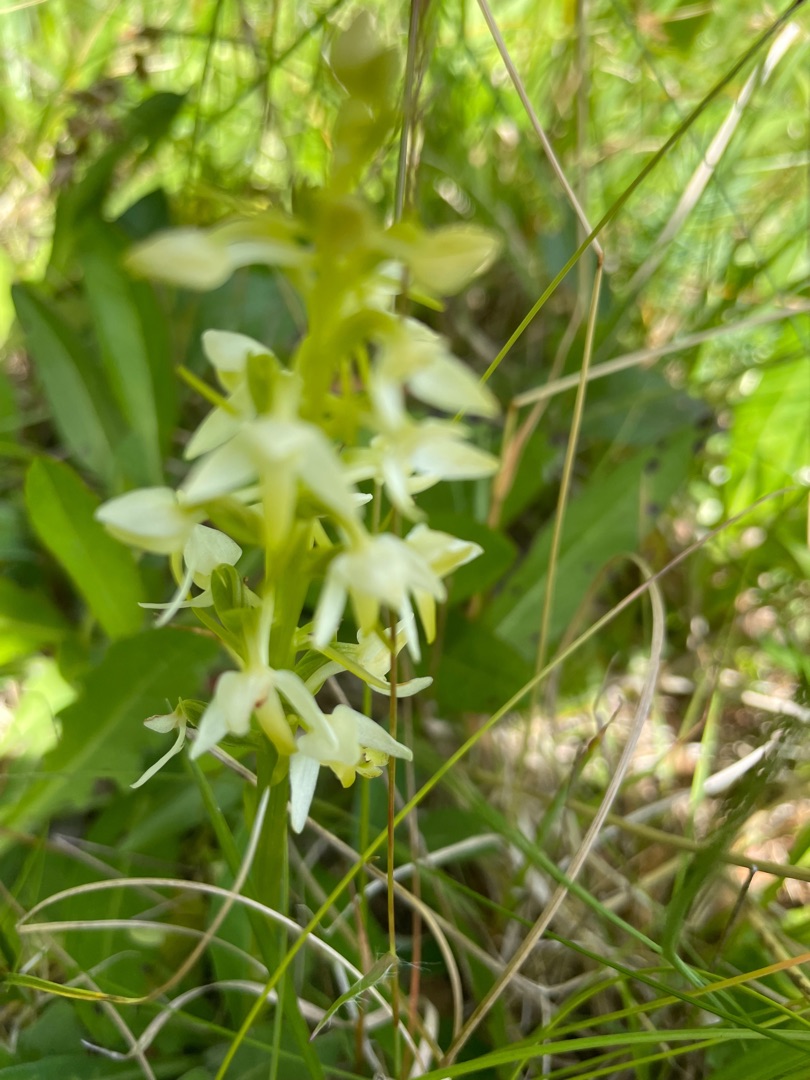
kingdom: Plantae
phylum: Tracheophyta
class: Liliopsida
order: Asparagales
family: Orchidaceae
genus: Platanthera
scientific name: Platanthera bifolia
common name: Bakke-gøgelilje
